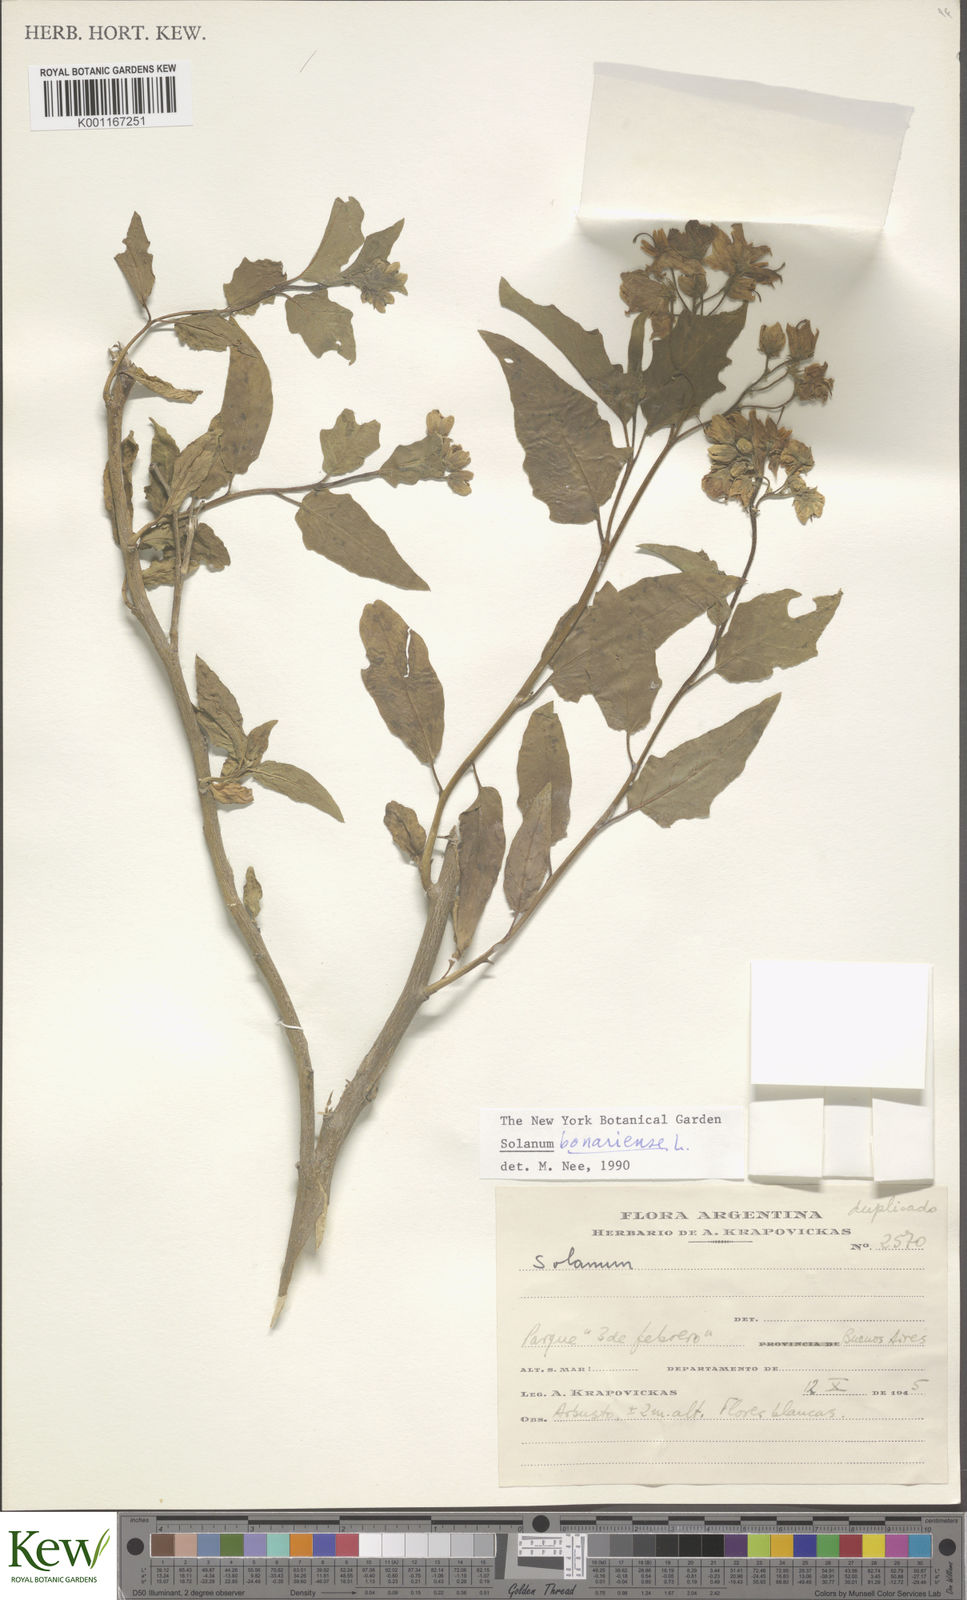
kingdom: Plantae
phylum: Tracheophyta
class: Magnoliopsida
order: Solanales
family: Solanaceae
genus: Solanum
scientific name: Solanum bonariense
